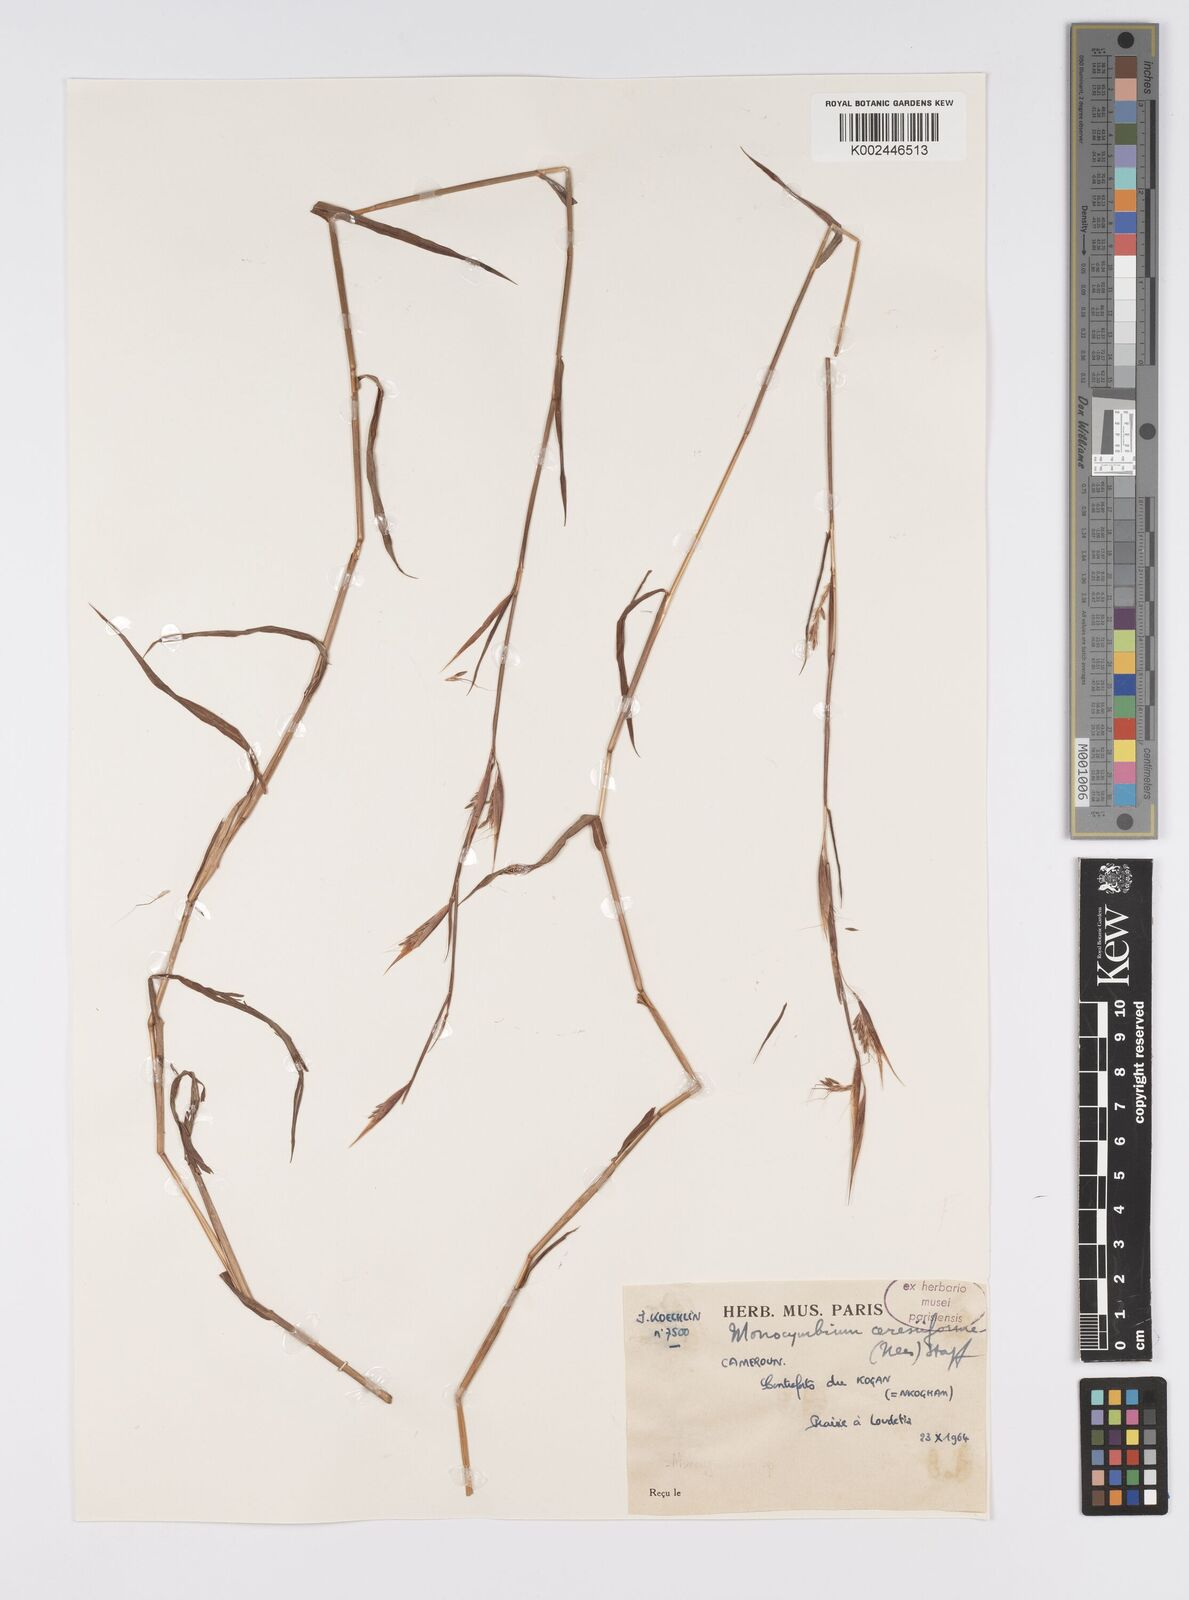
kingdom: Plantae
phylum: Tracheophyta
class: Liliopsida
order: Poales
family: Poaceae
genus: Monocymbium
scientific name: Monocymbium ceresiiforme
